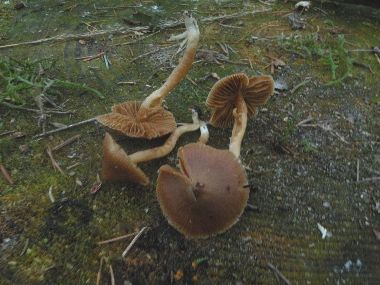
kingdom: Fungi
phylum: Basidiomycota
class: Agaricomycetes
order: Agaricales
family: Cortinariaceae
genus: Cortinarius
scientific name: Cortinarius
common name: hvidægget slørhat
